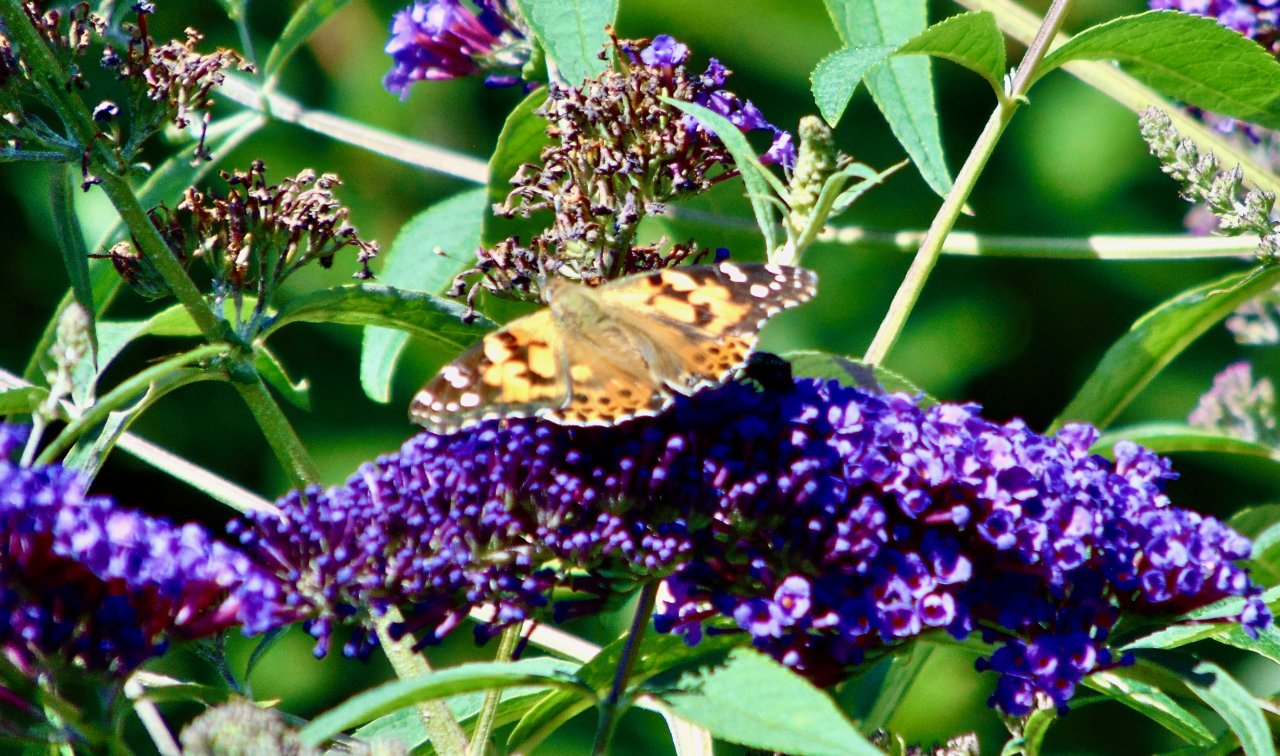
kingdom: Animalia
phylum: Arthropoda
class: Insecta
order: Lepidoptera
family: Nymphalidae
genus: Vanessa
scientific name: Vanessa cardui
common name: Painted Lady
